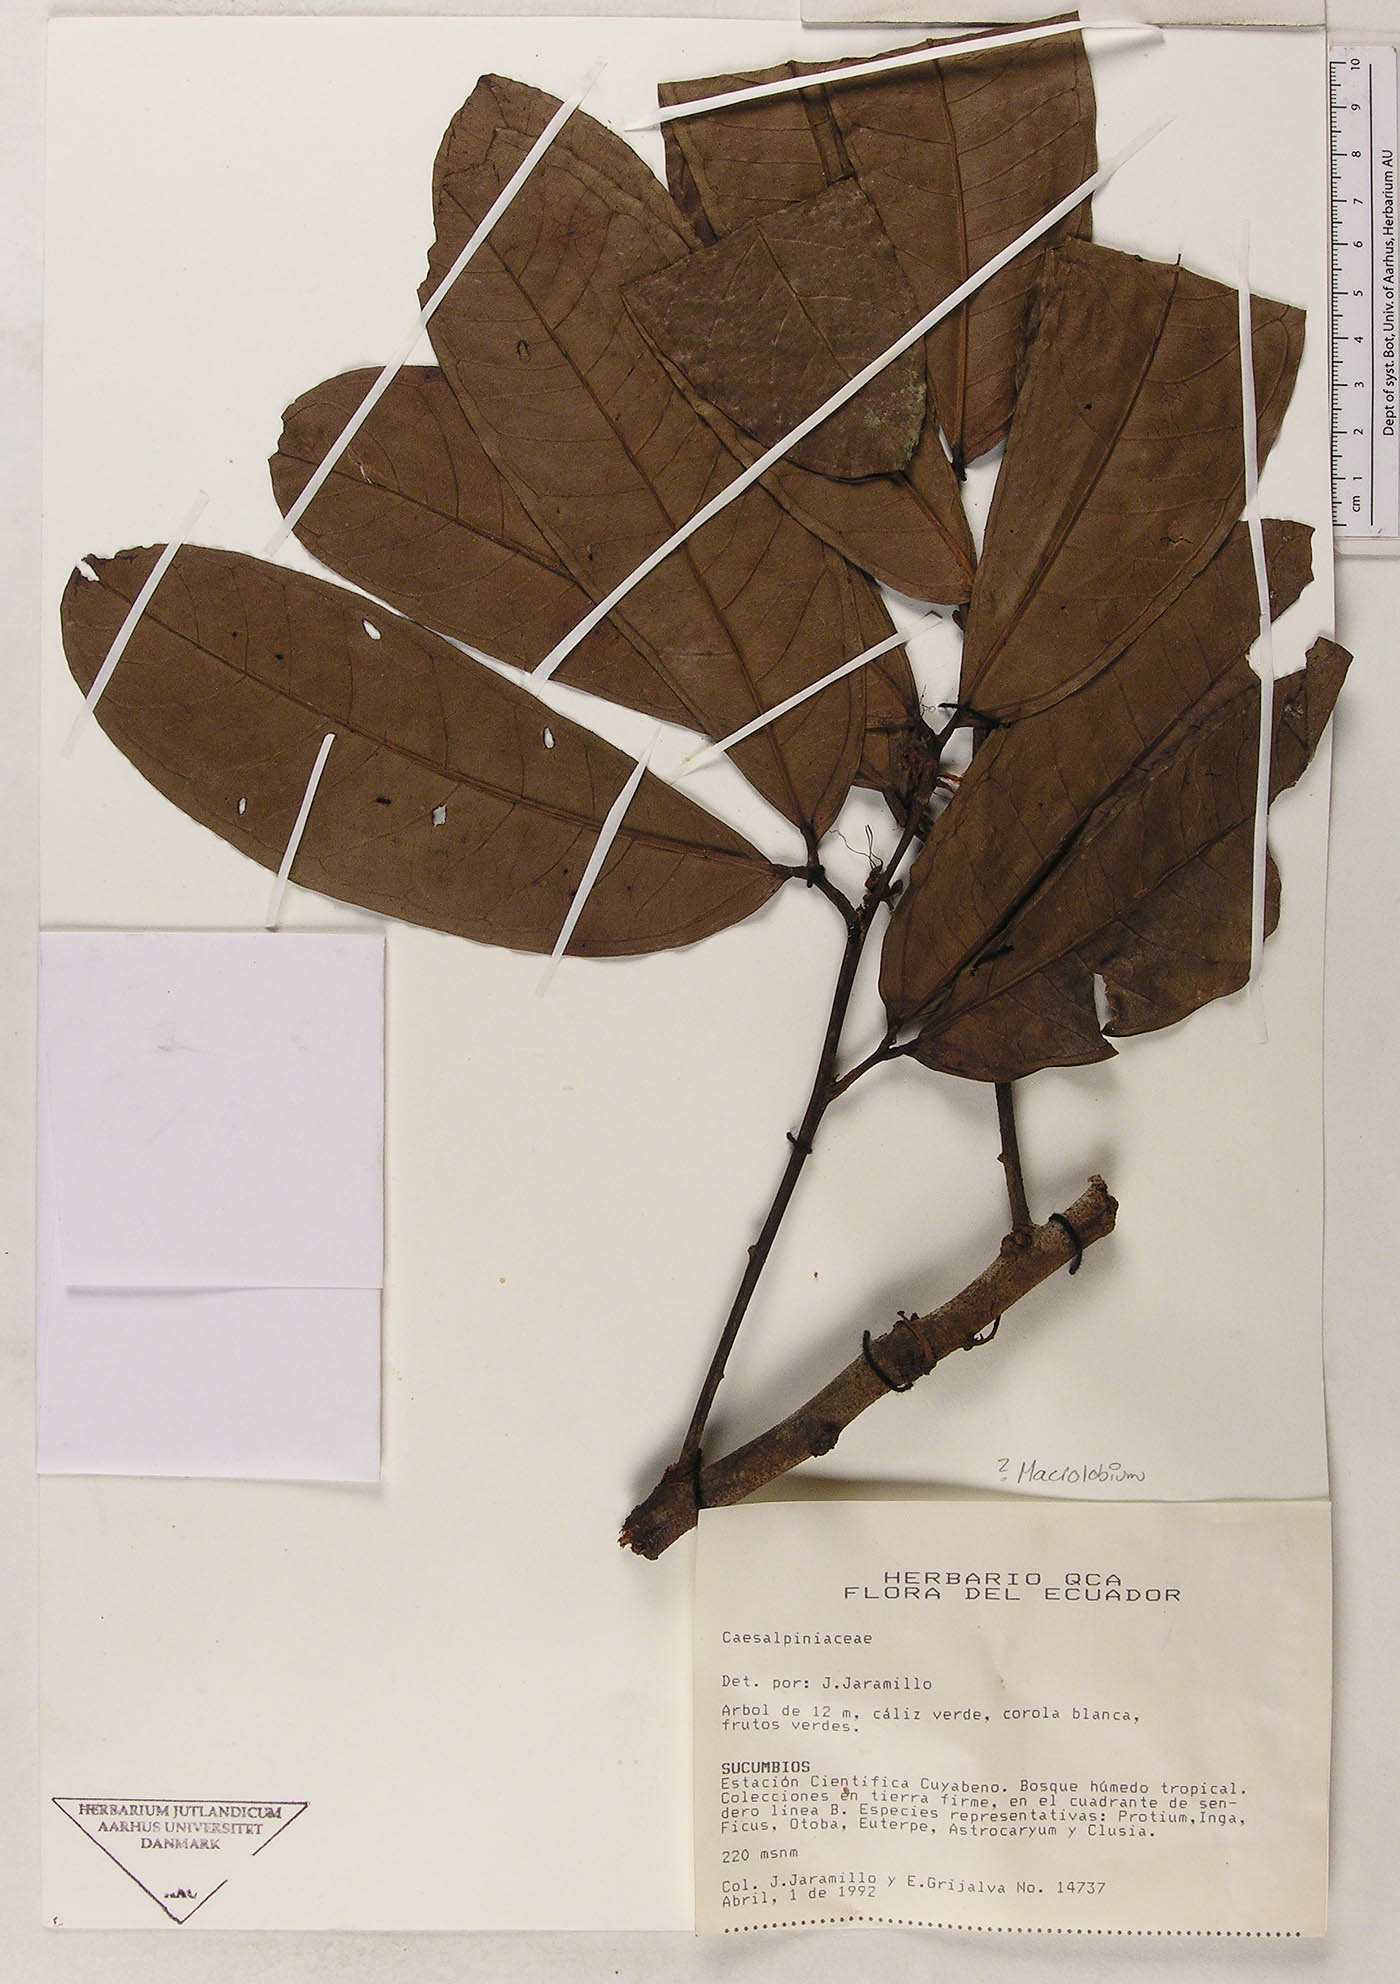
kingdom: Plantae
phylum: Tracheophyta
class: Magnoliopsida
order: Fabales
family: Fabaceae
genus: Macrolobium
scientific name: Macrolobium
